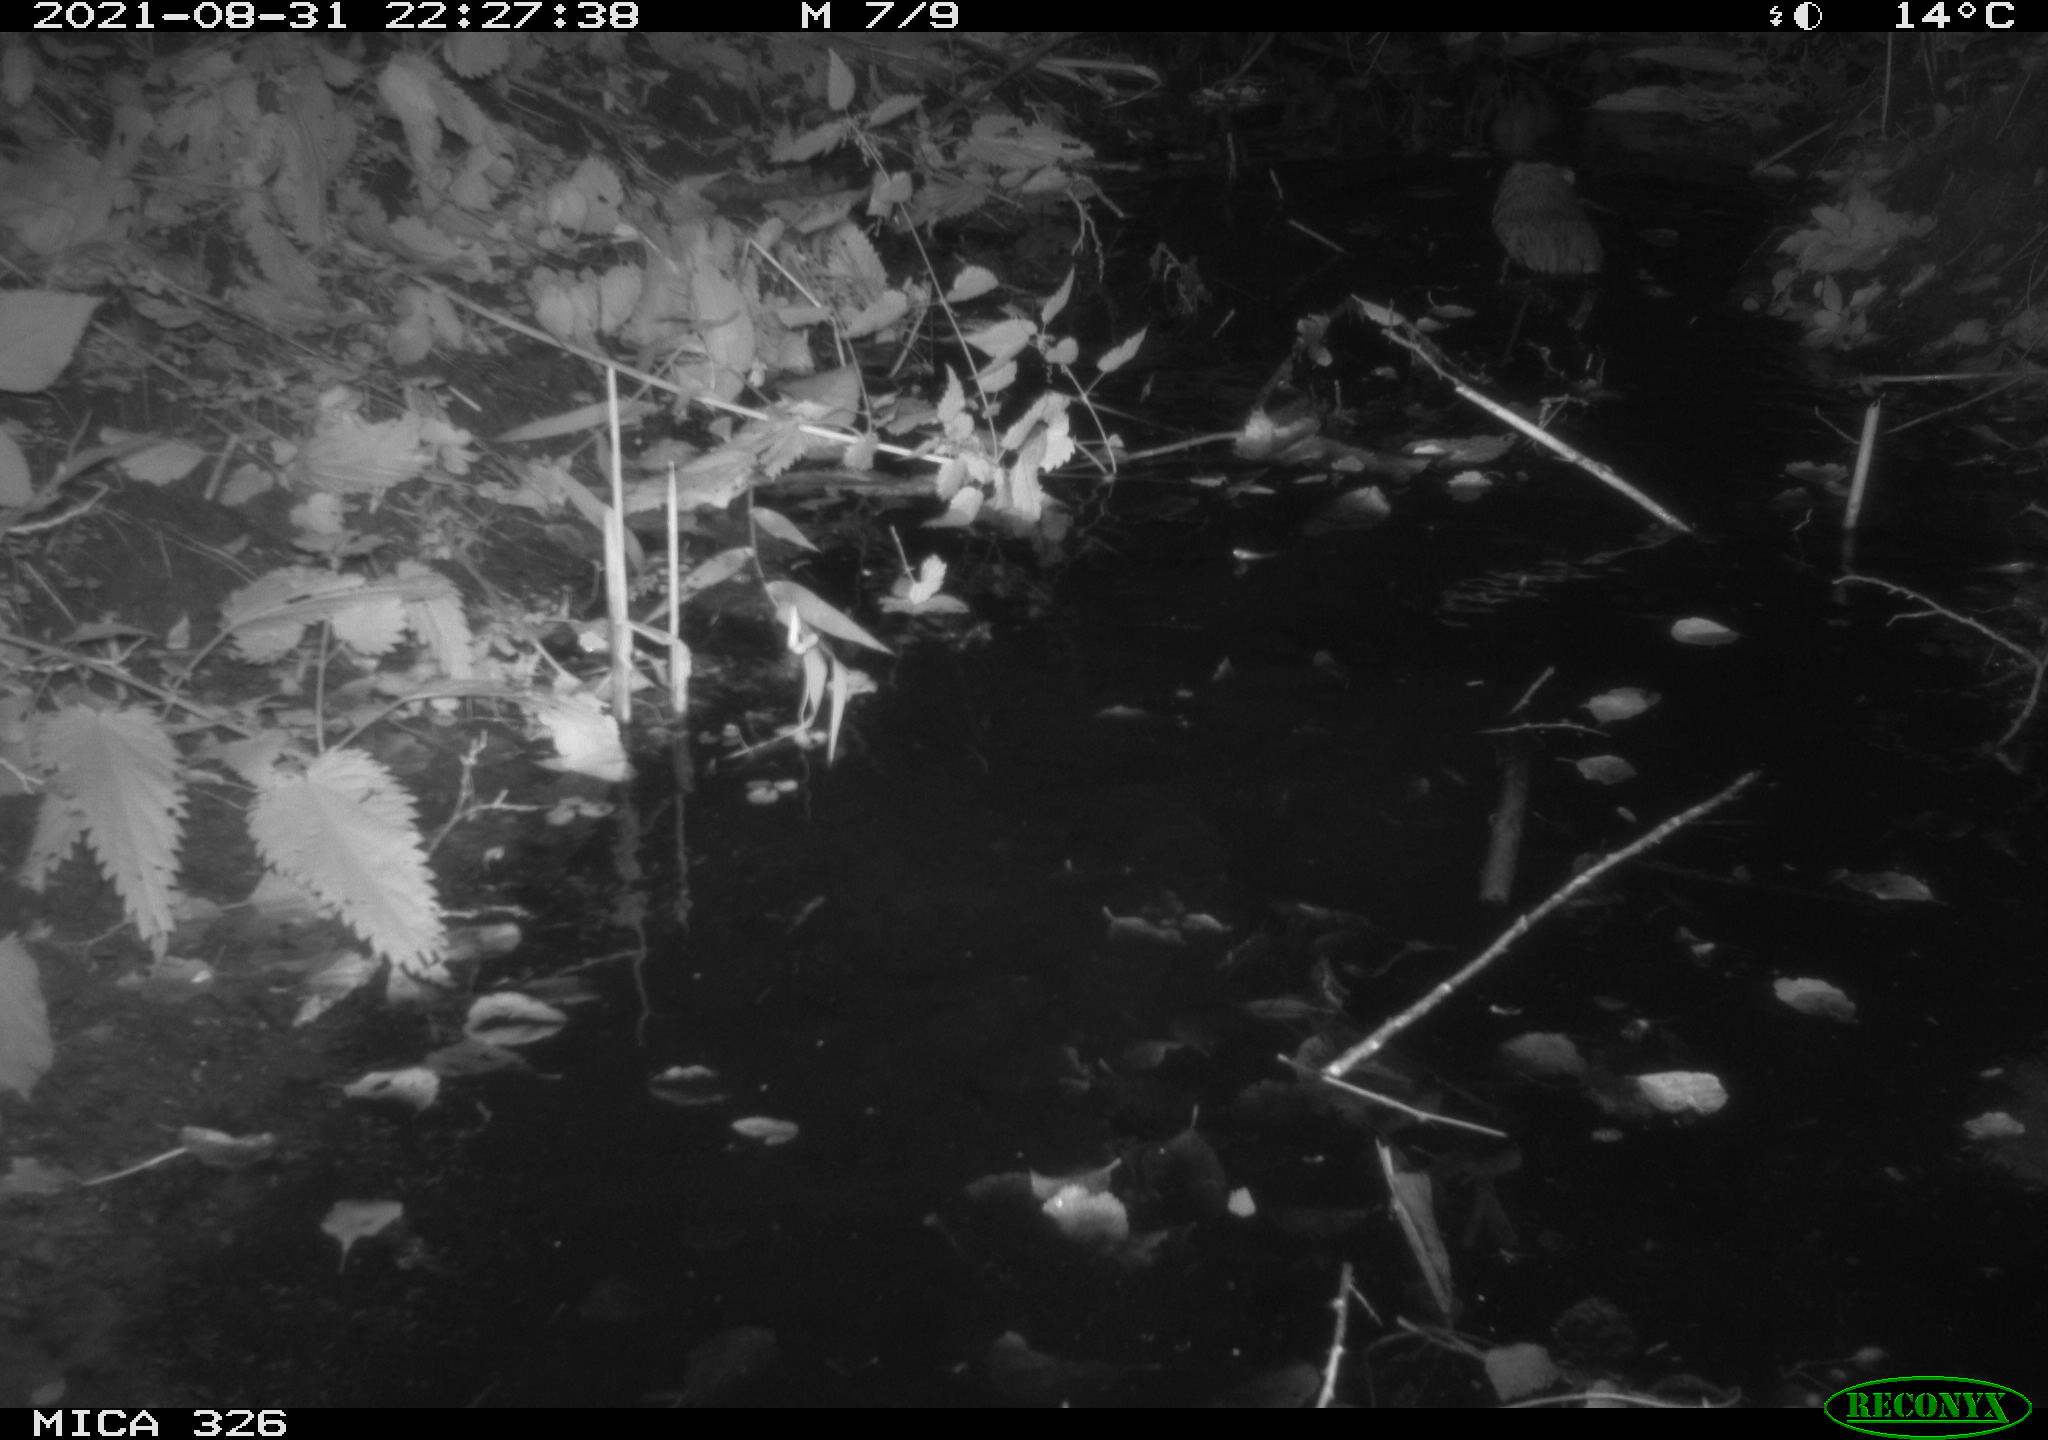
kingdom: Animalia
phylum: Chordata
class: Mammalia
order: Rodentia
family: Cricetidae
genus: Ondatra
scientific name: Ondatra zibethicus
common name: Muskrat
